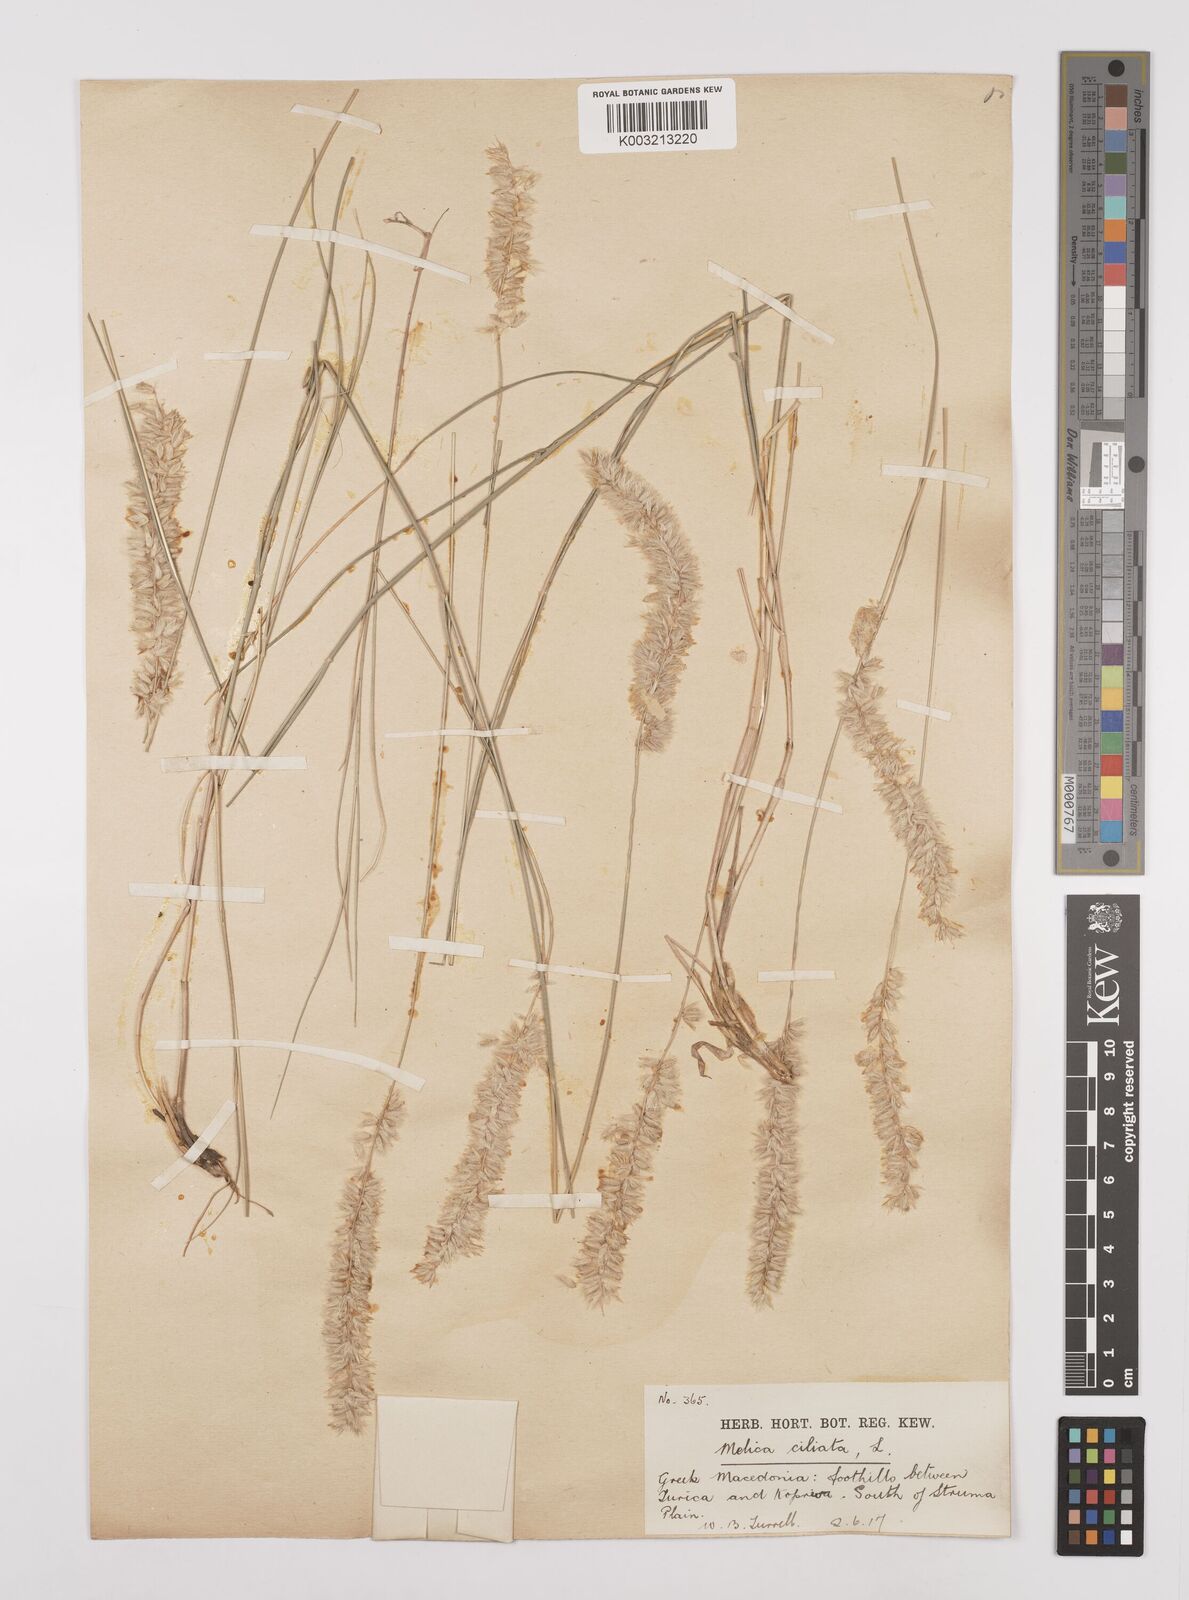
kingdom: Plantae
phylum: Tracheophyta
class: Liliopsida
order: Poales
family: Poaceae
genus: Melica
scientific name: Melica ciliata
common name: Hairy melicgrass
